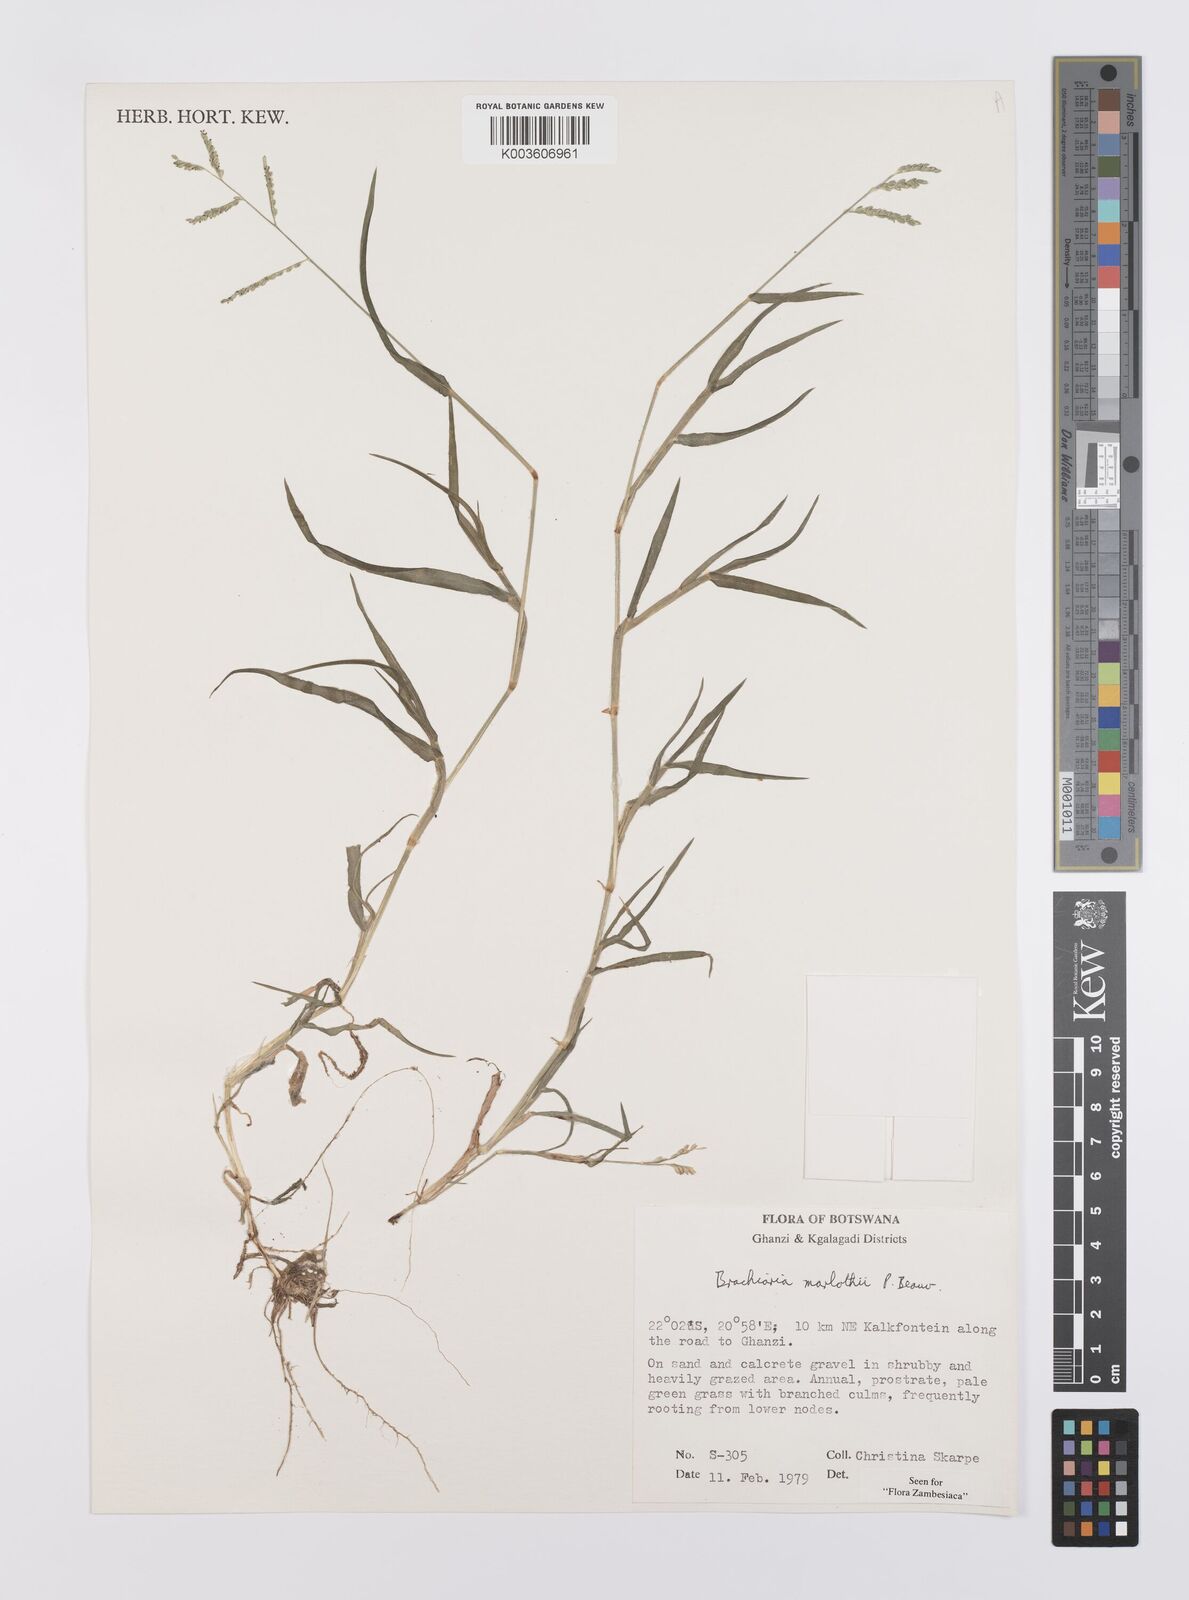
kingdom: Plantae
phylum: Tracheophyta
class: Liliopsida
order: Poales
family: Poaceae
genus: Urochloa
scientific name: Urochloa Brachiaria marlothii
